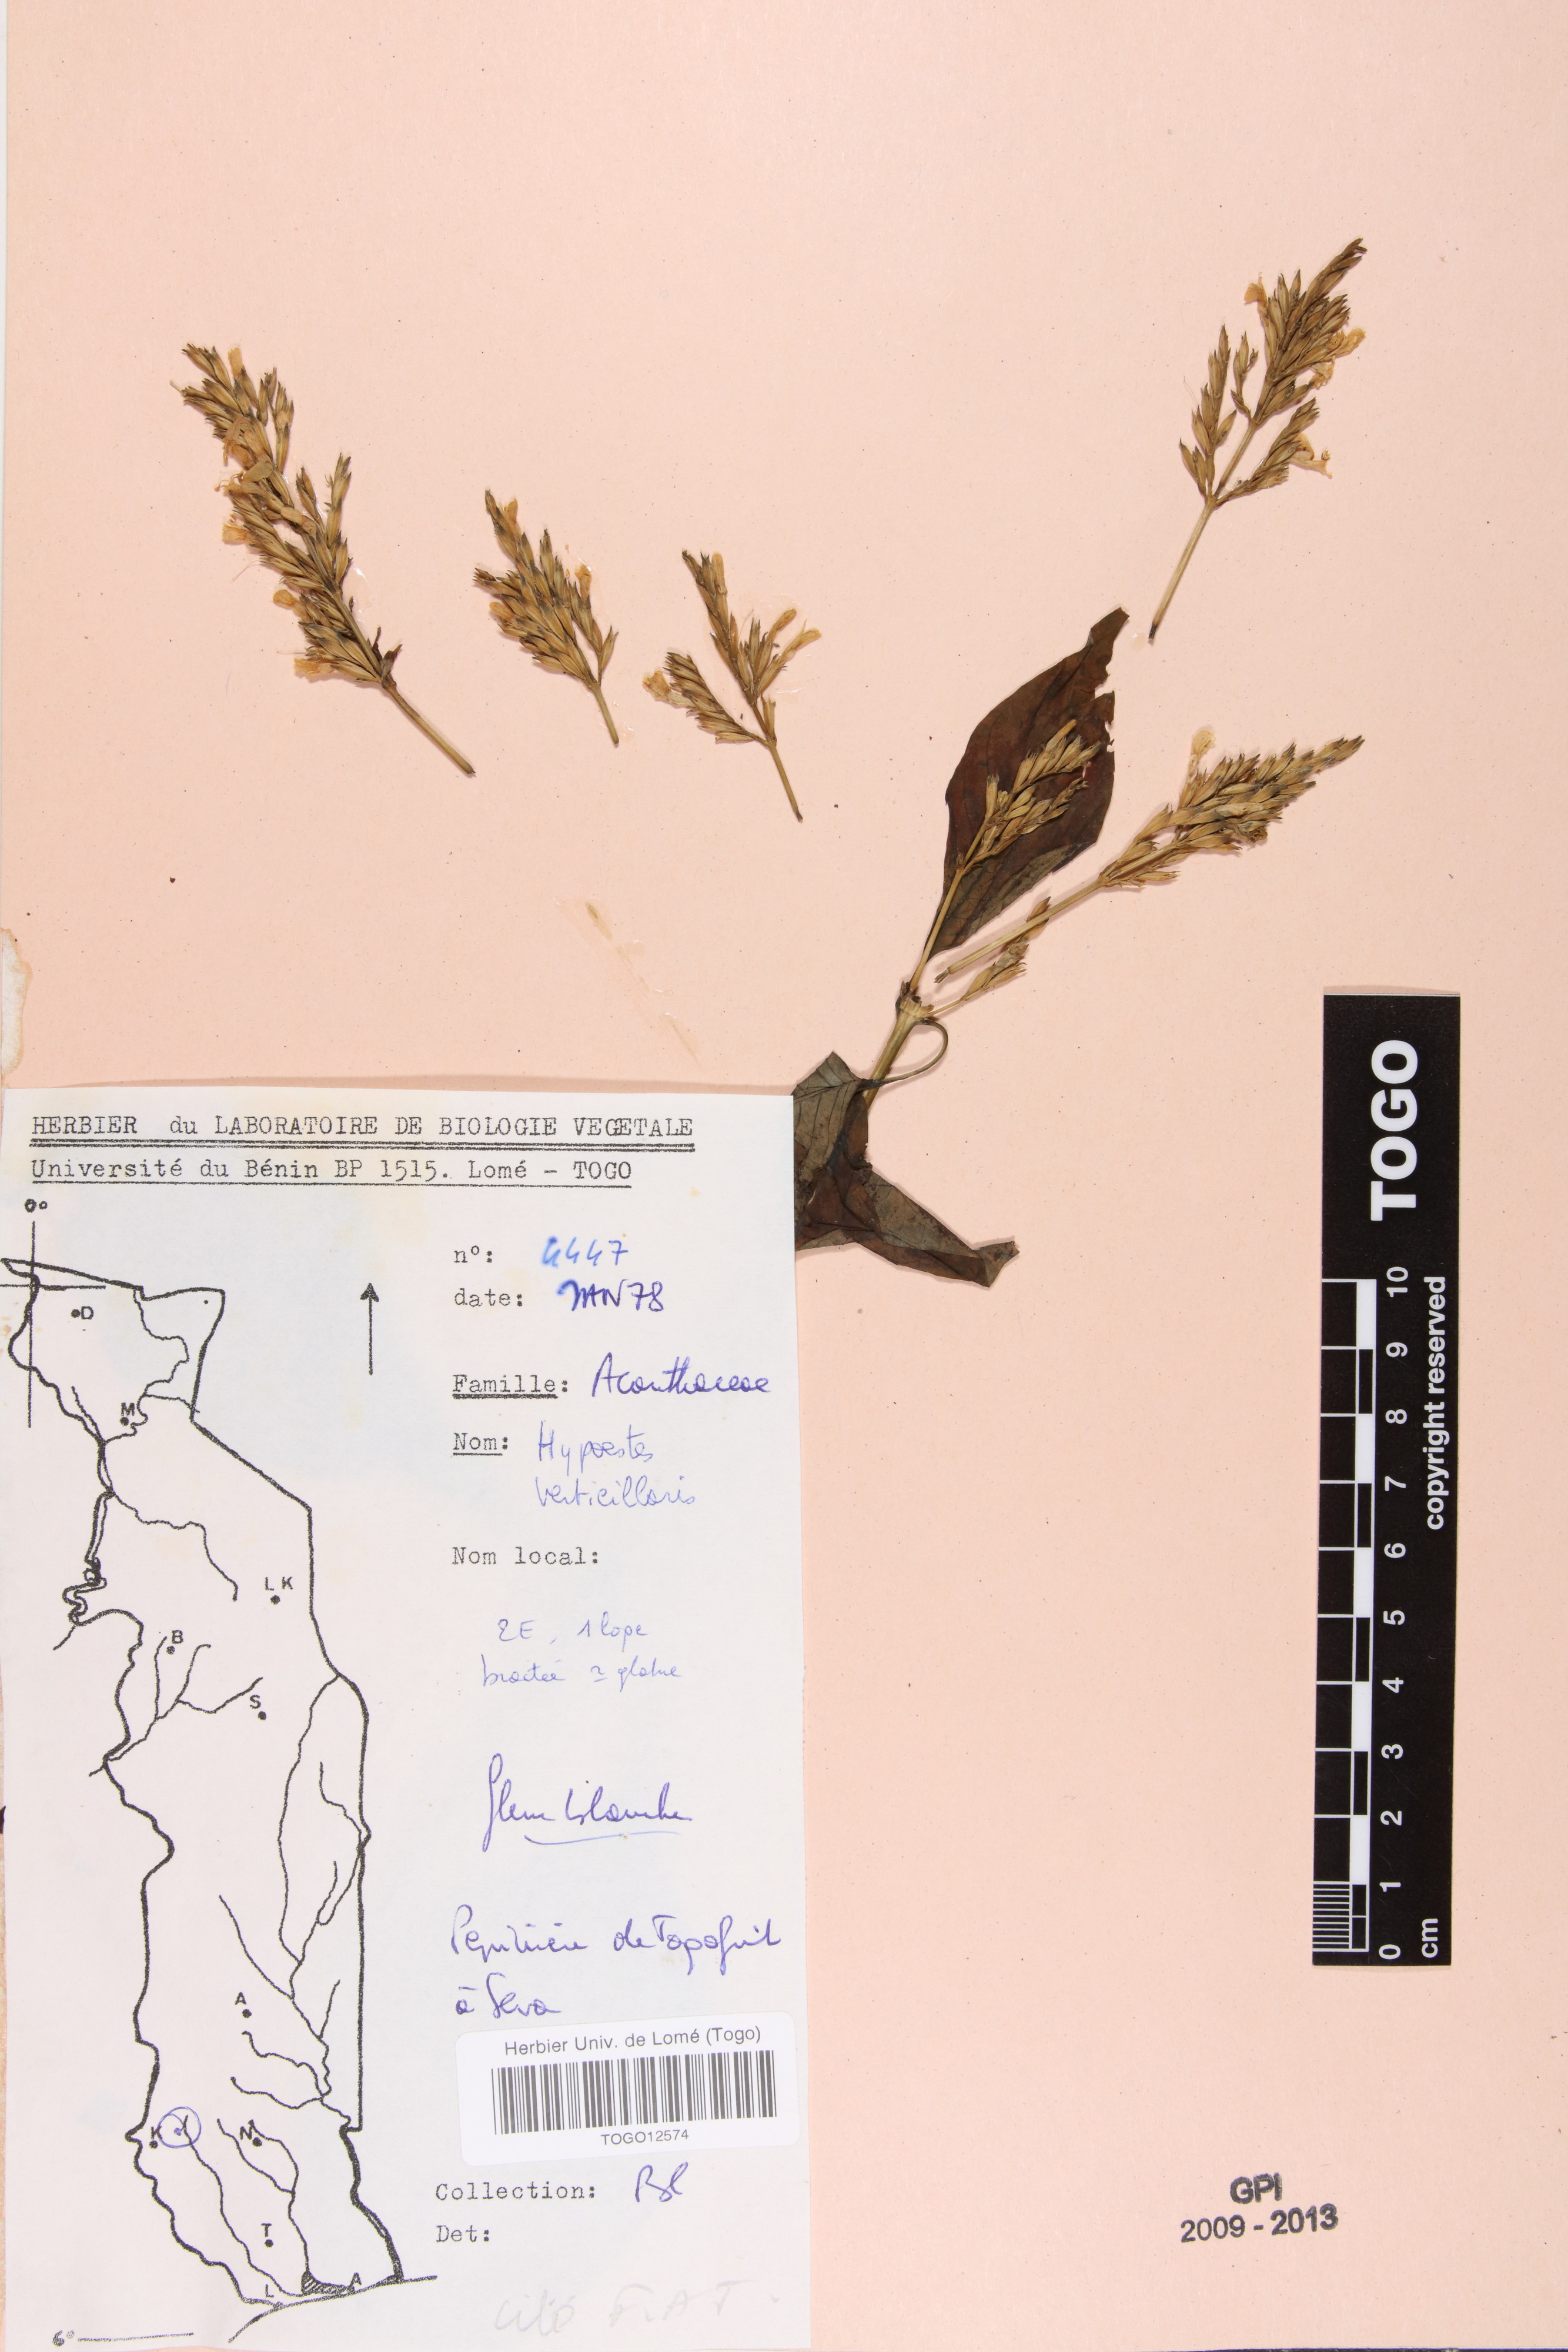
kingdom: Plantae
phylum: Tracheophyta
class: Magnoliopsida
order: Lamiales
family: Acanthaceae
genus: Hypoestes
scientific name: Hypoestes aristata
